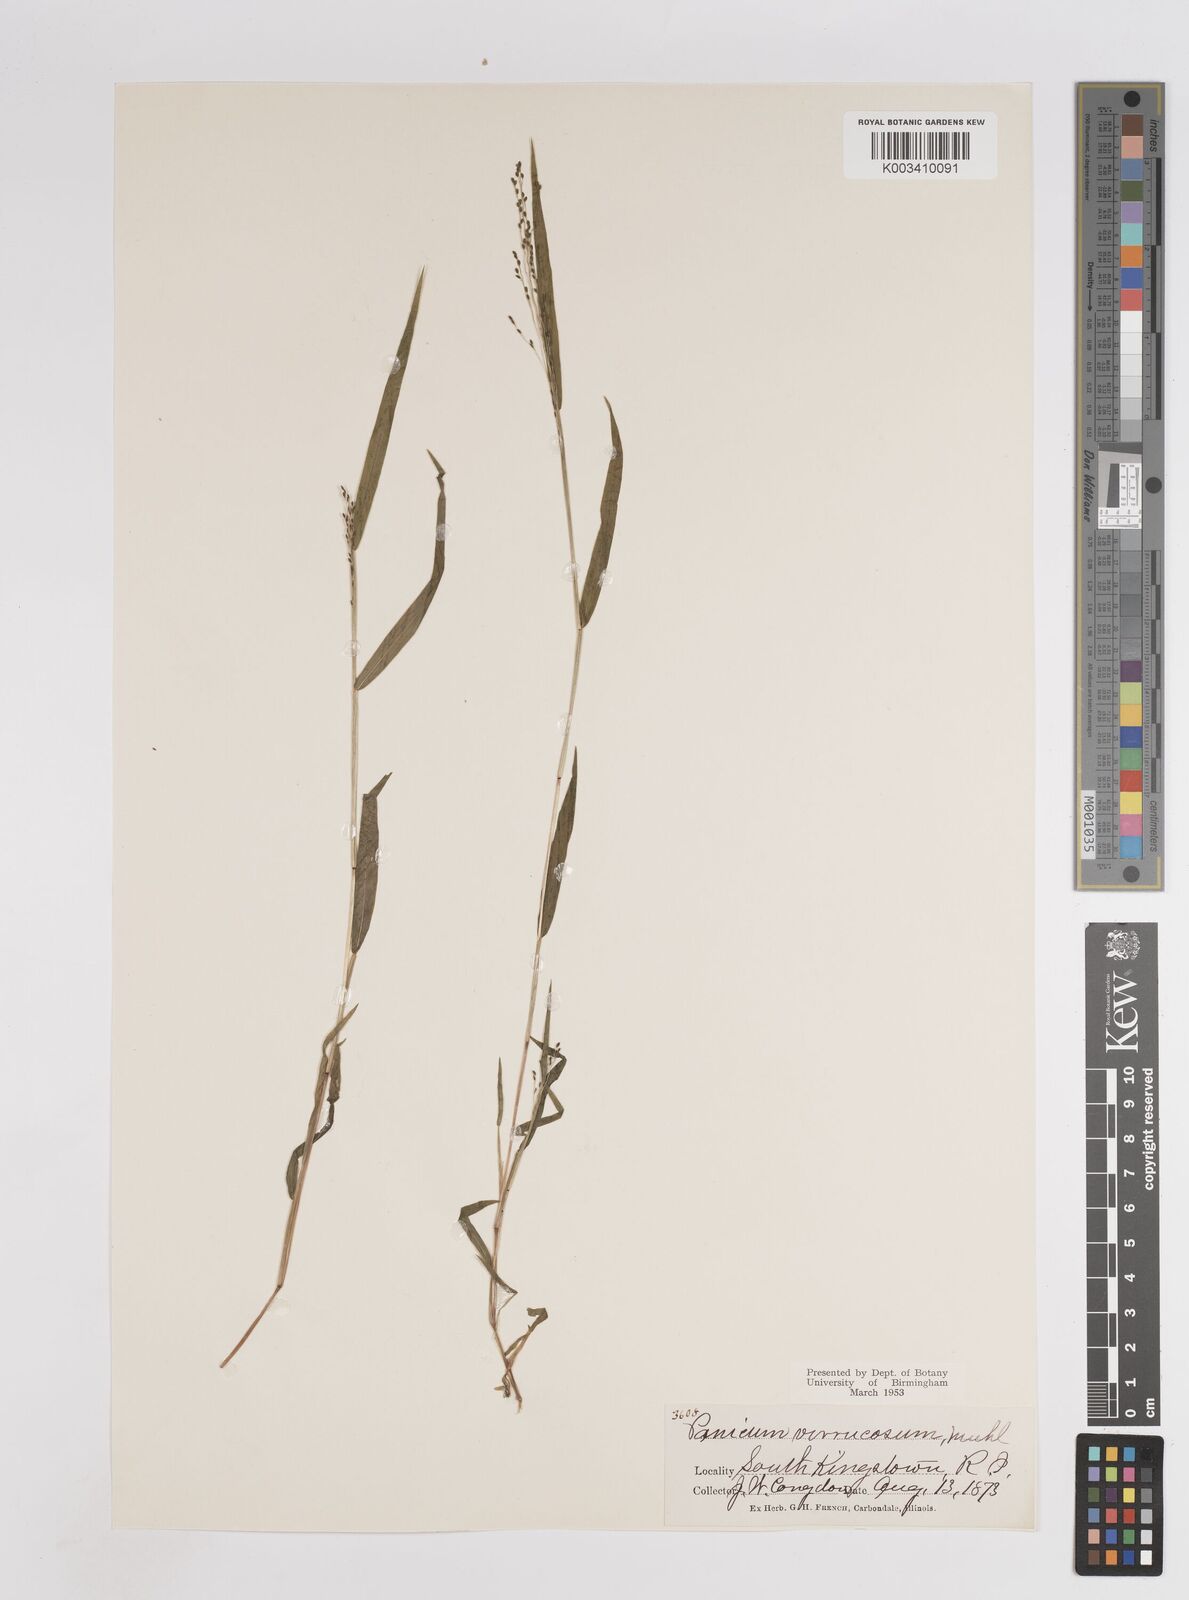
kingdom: Plantae
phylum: Tracheophyta
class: Liliopsida
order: Poales
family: Poaceae
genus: Kellochloa
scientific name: Kellochloa verrucosa
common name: Warty panic grass
